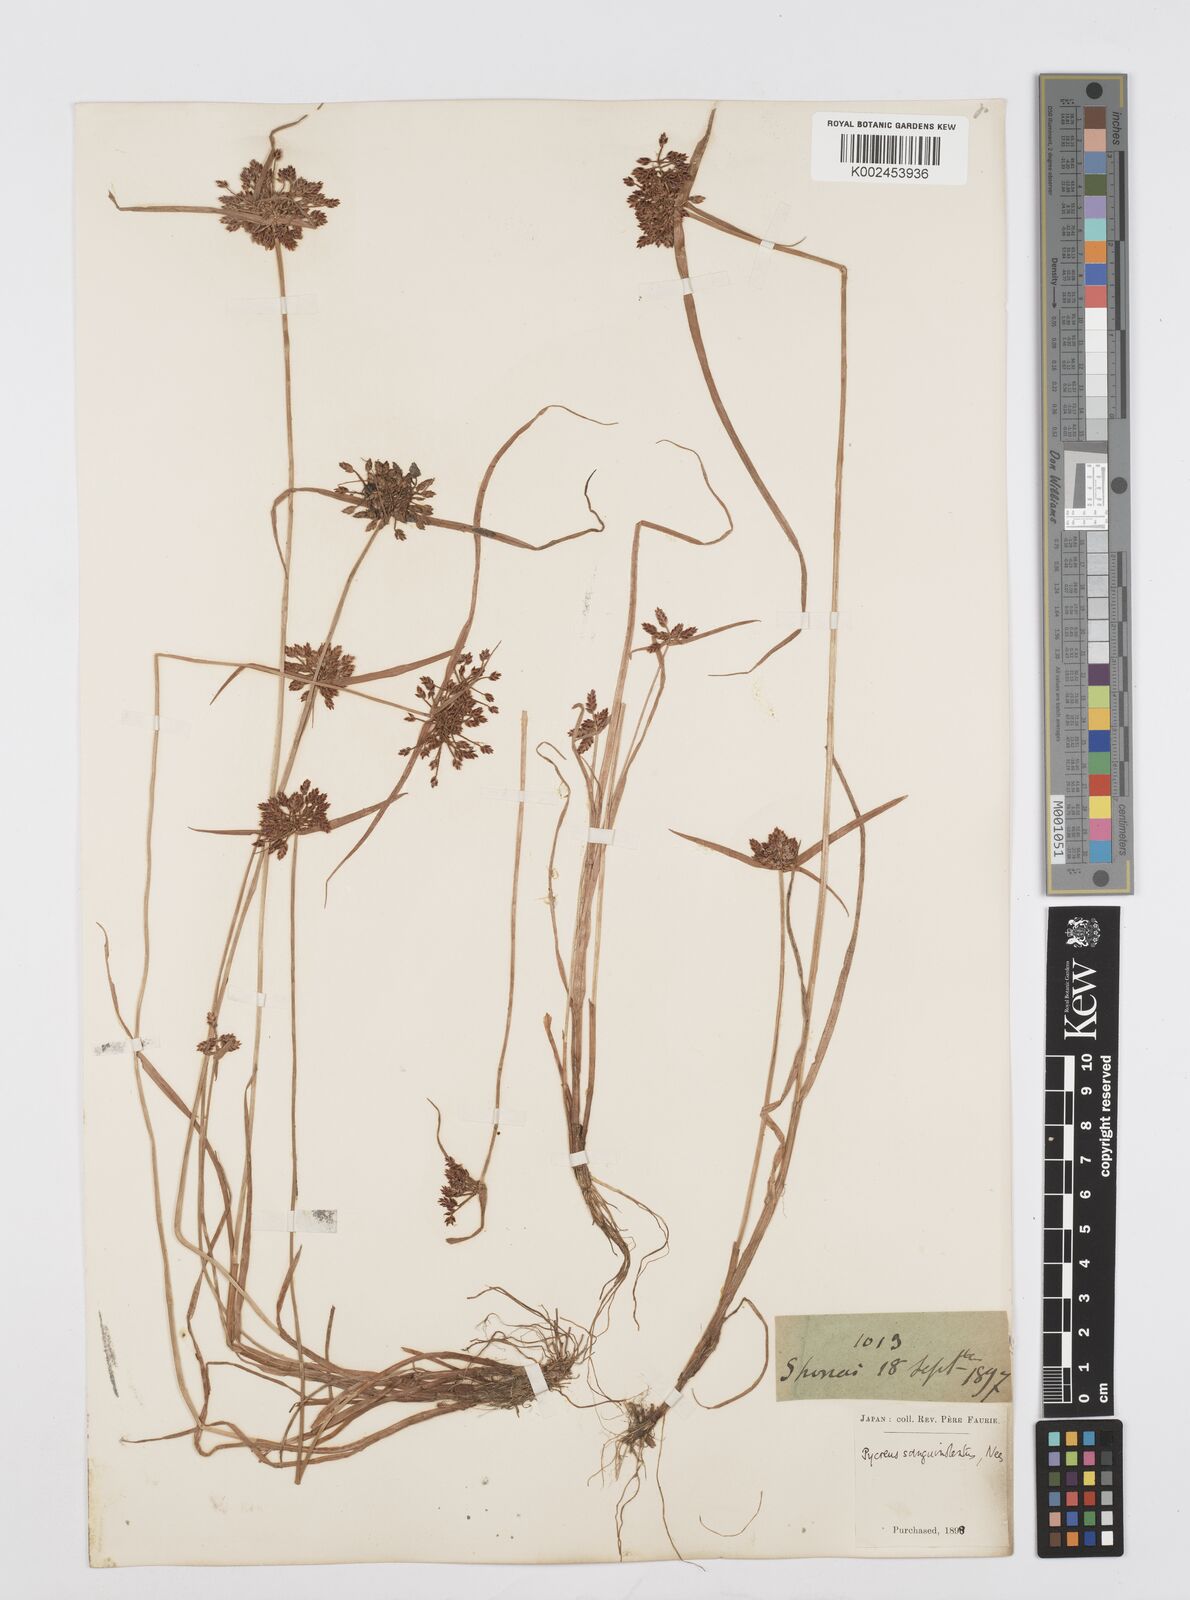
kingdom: Plantae
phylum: Tracheophyta
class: Liliopsida
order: Poales
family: Cyperaceae
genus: Cyperus
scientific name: Cyperus sanguinolentus
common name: Purpleglume flatsedge
